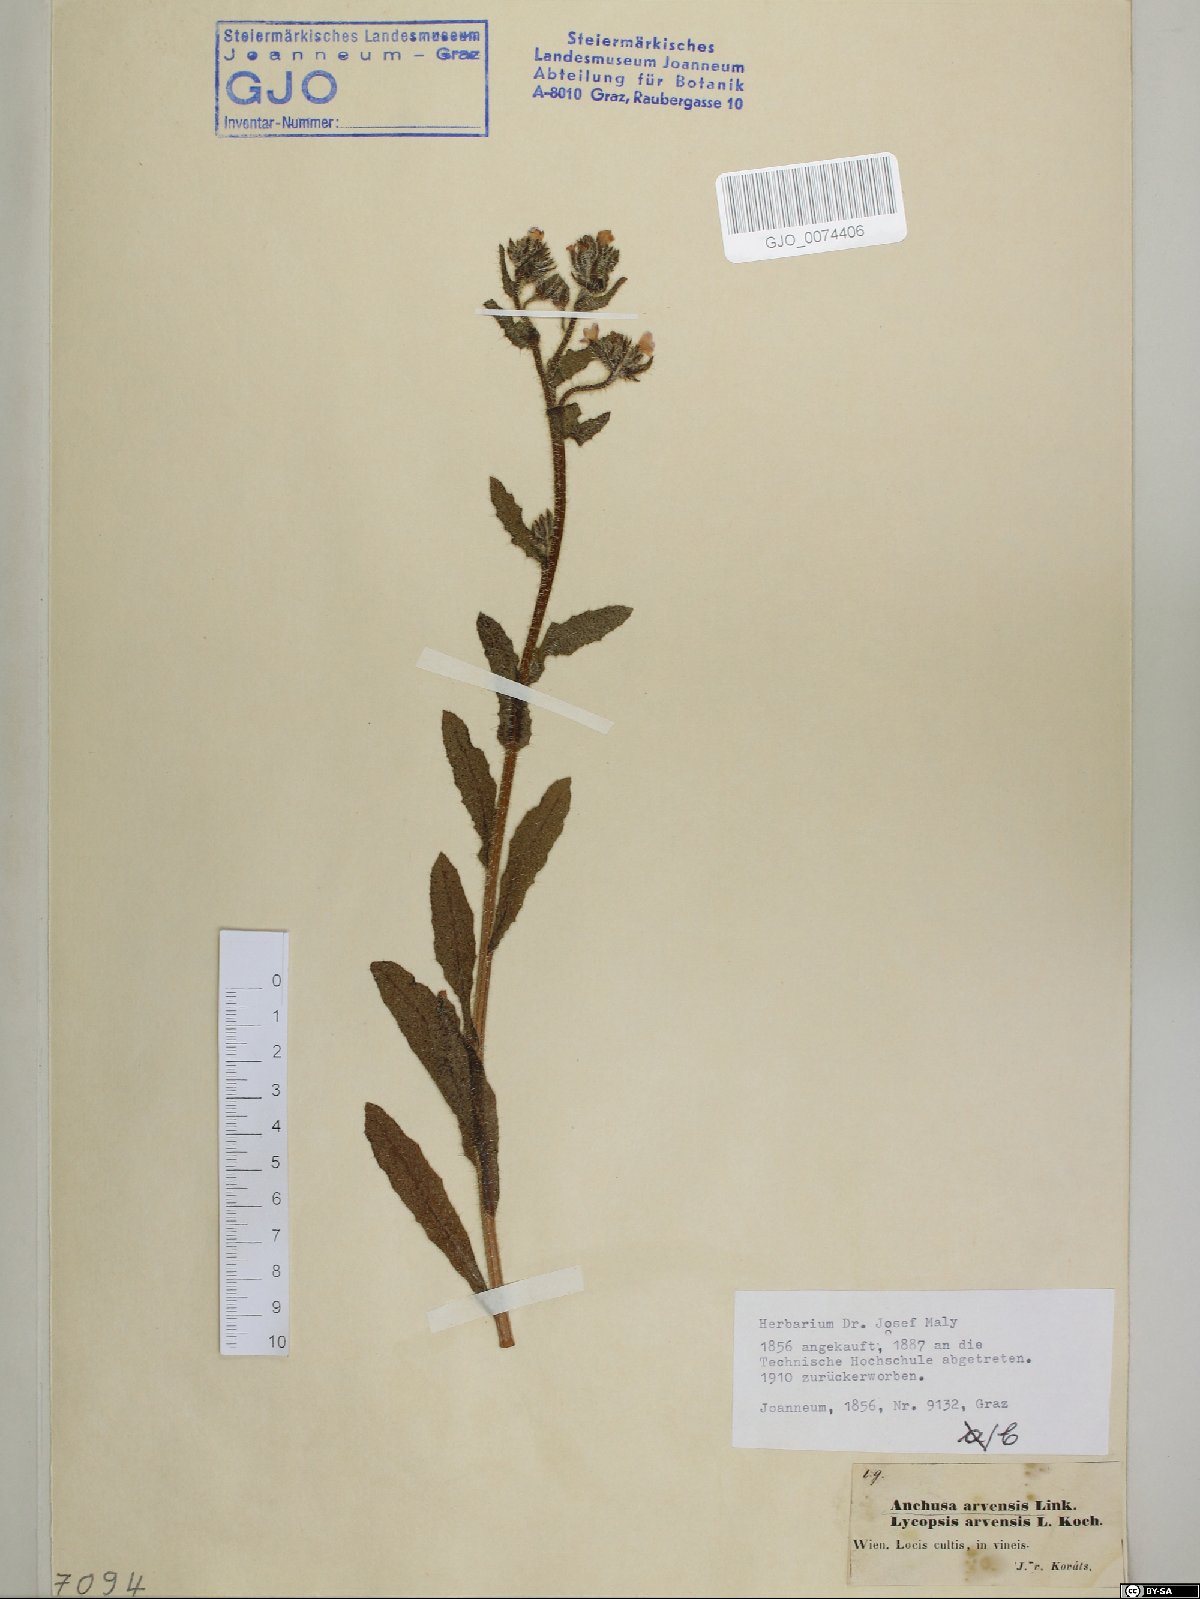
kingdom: Plantae
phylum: Tracheophyta
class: Magnoliopsida
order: Boraginales
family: Boraginaceae
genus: Lycopsis
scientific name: Lycopsis arvensis
